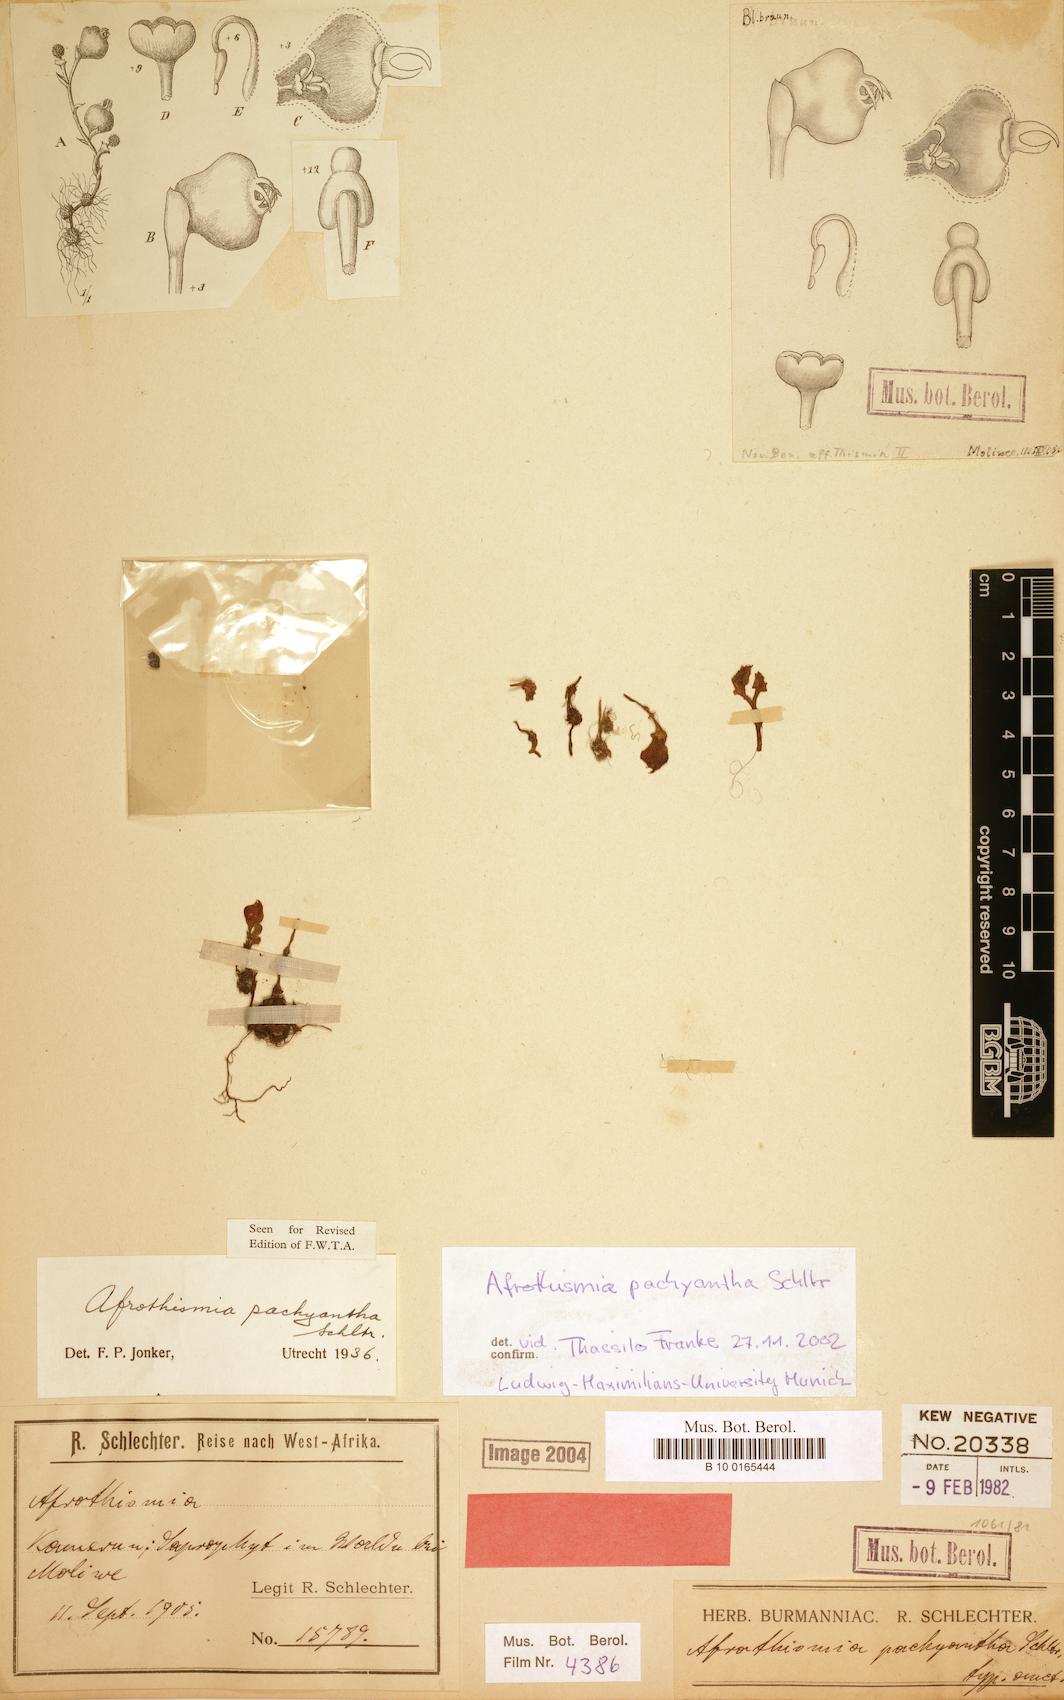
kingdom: Plantae
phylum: Tracheophyta
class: Liliopsida
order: Dioscoreales
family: Burmanniaceae
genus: Afrothismia
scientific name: Afrothismia pachyantha
